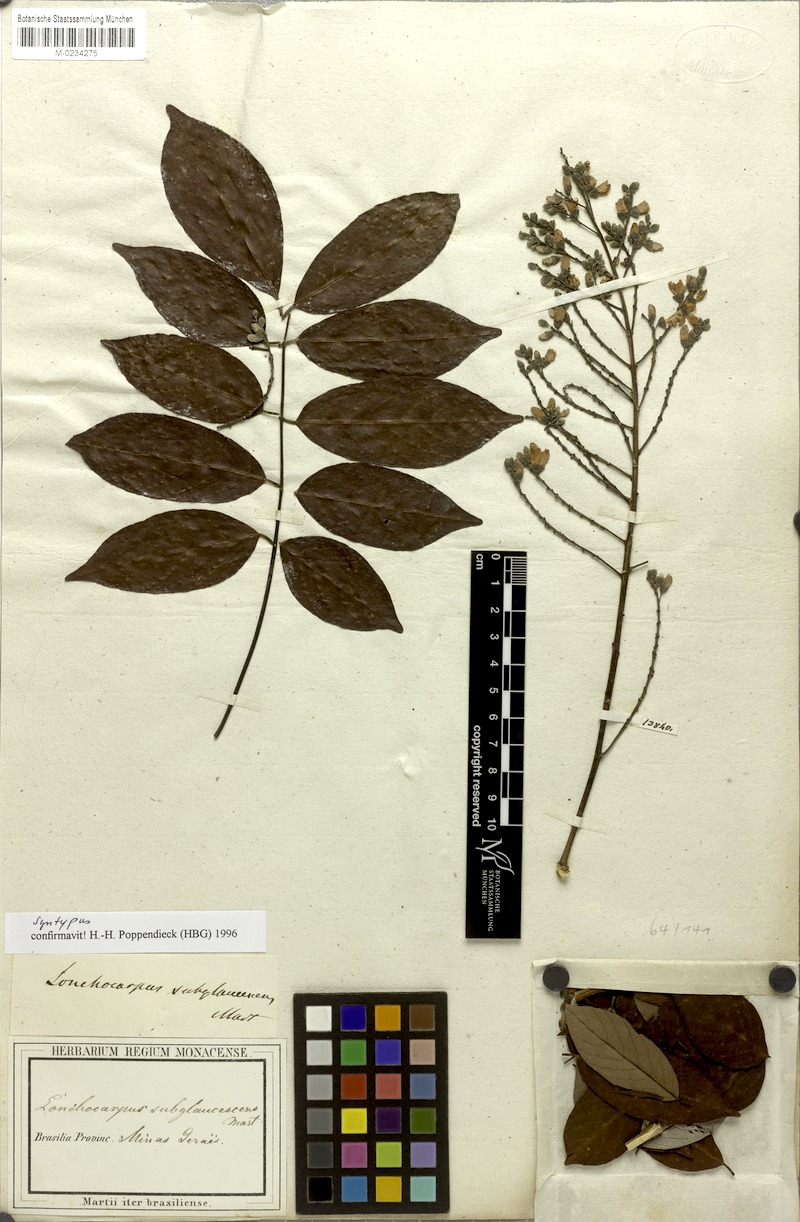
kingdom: Plantae
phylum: Tracheophyta
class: Magnoliopsida
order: Fabales
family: Fabaceae
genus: Lonchocarpus
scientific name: Lonchocarpus subglaucescens
